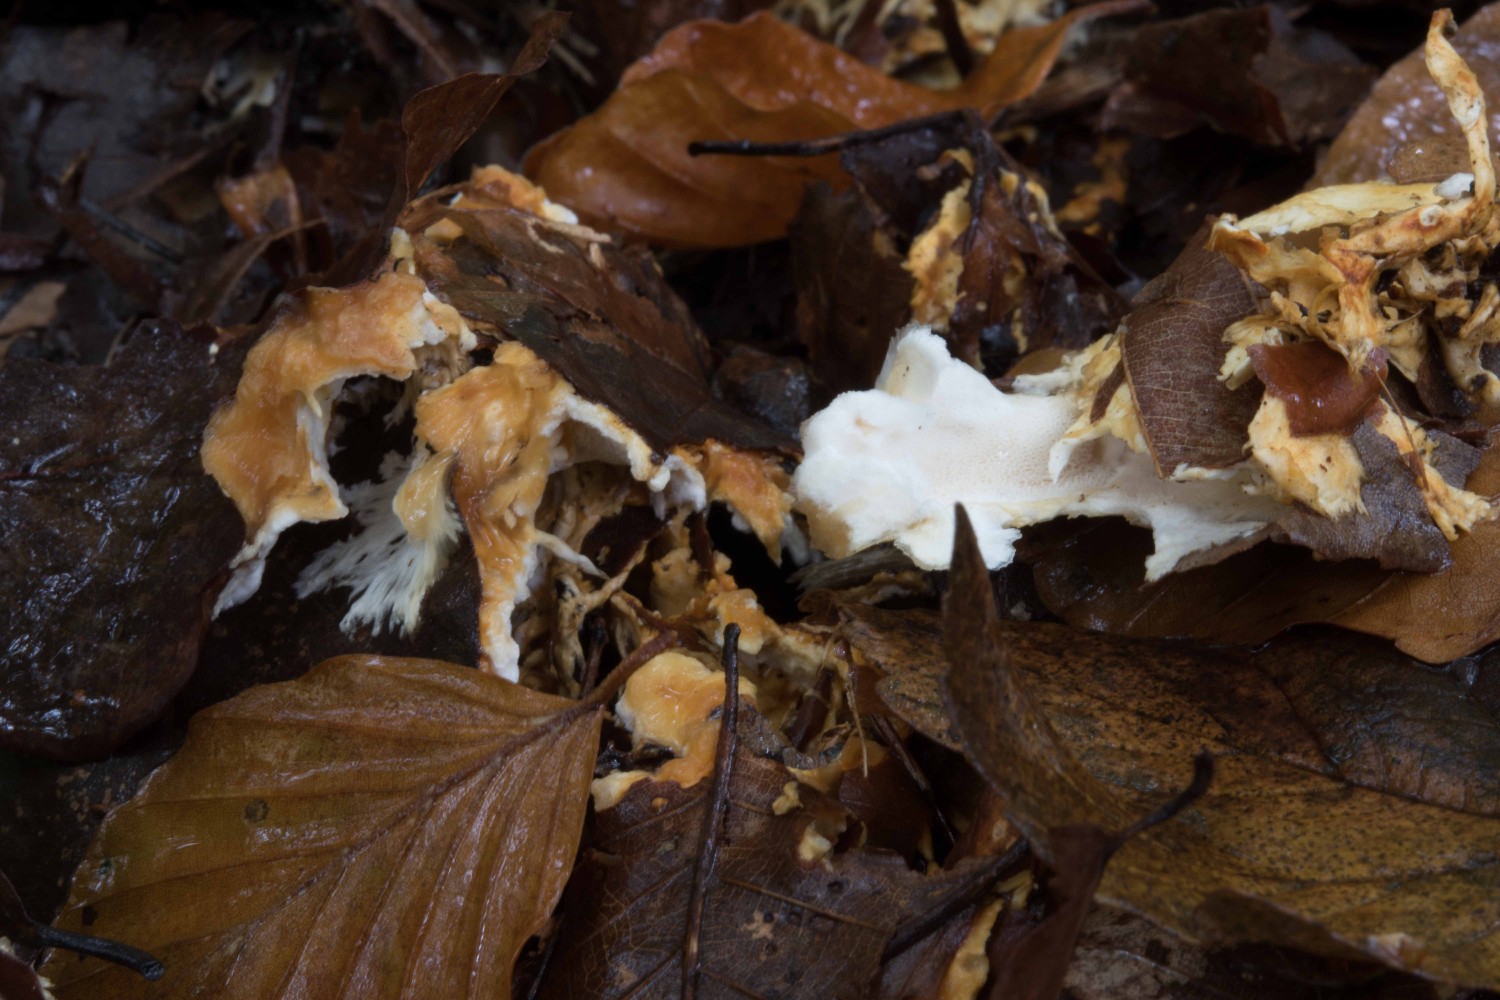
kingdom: Fungi
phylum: Basidiomycota
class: Agaricomycetes
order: Polyporales
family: Steccherinaceae
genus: Loweomyces
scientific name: Loweomyces wynneae
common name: krybende blødporesvamp
